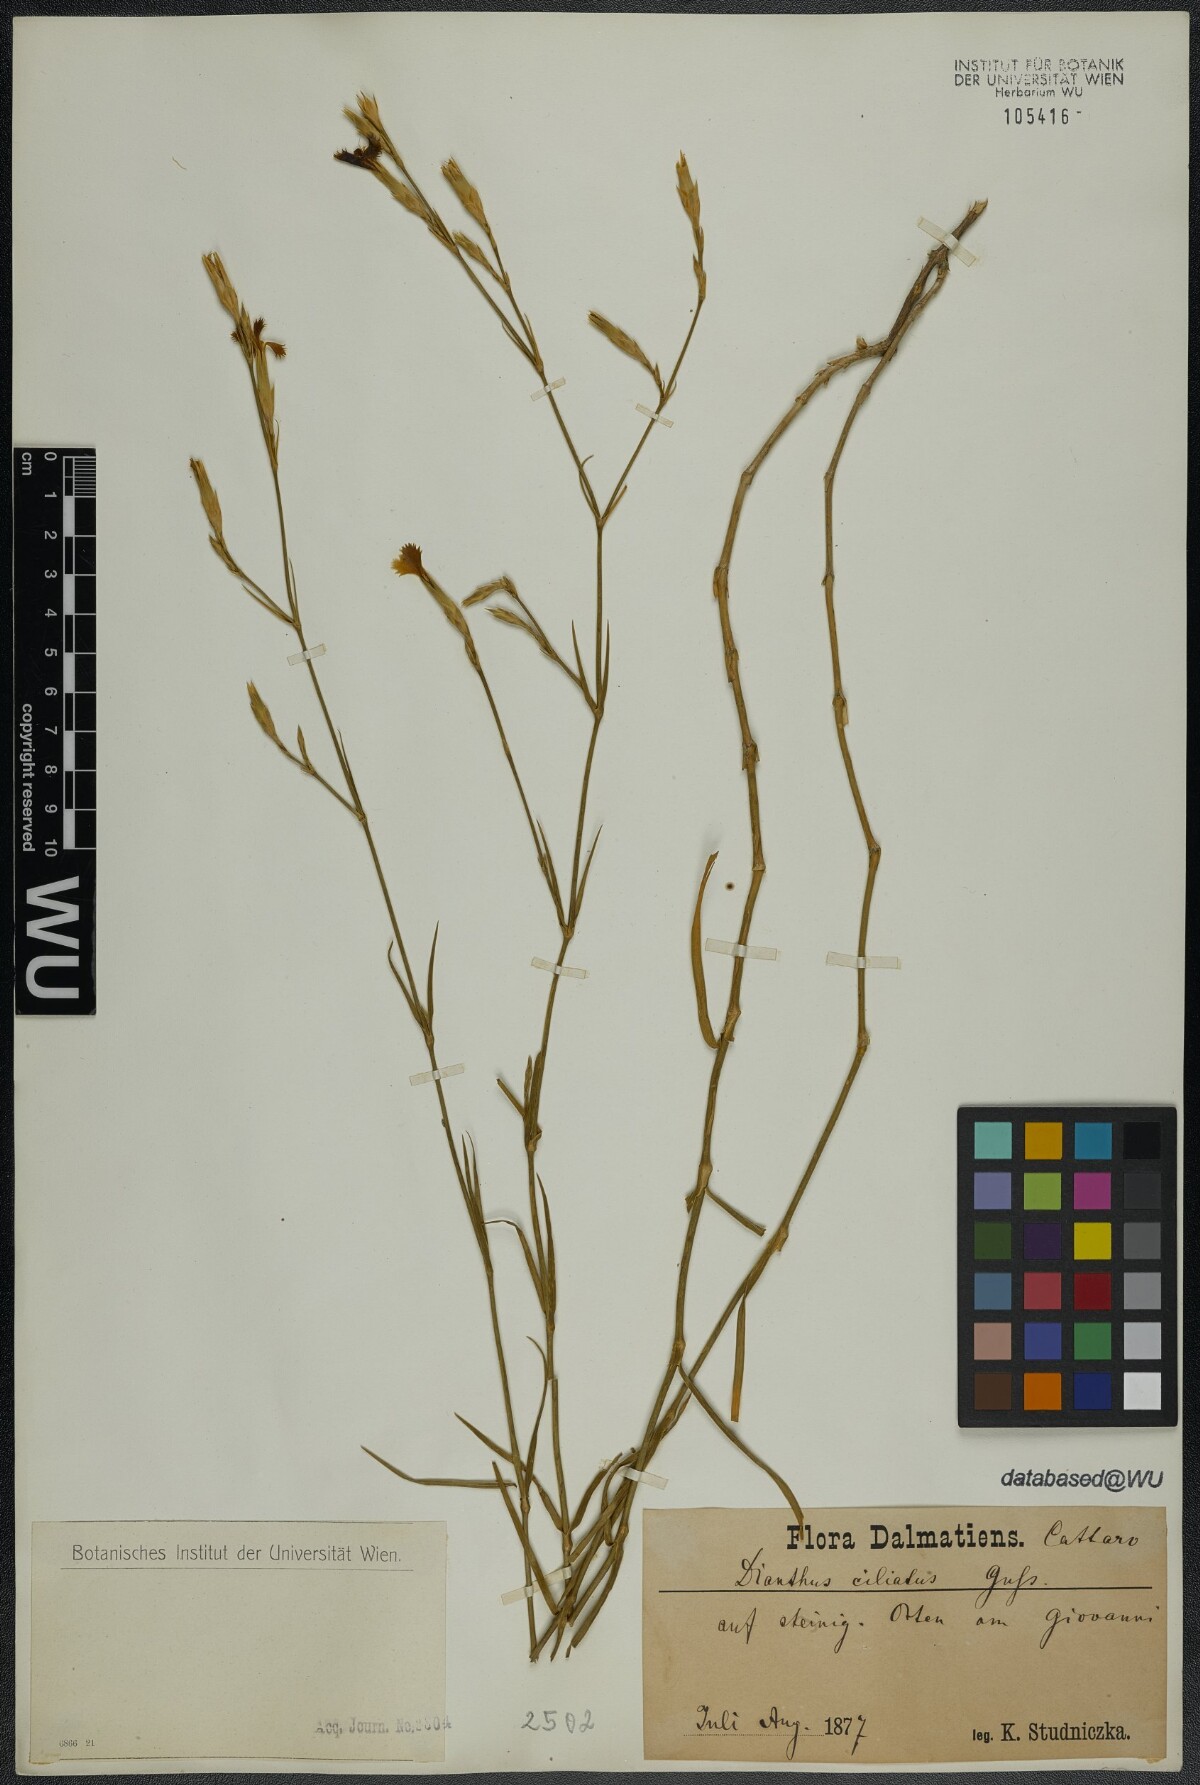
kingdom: Plantae
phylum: Tracheophyta
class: Magnoliopsida
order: Caryophyllales
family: Caryophyllaceae
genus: Dianthus
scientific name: Dianthus ciliatus
